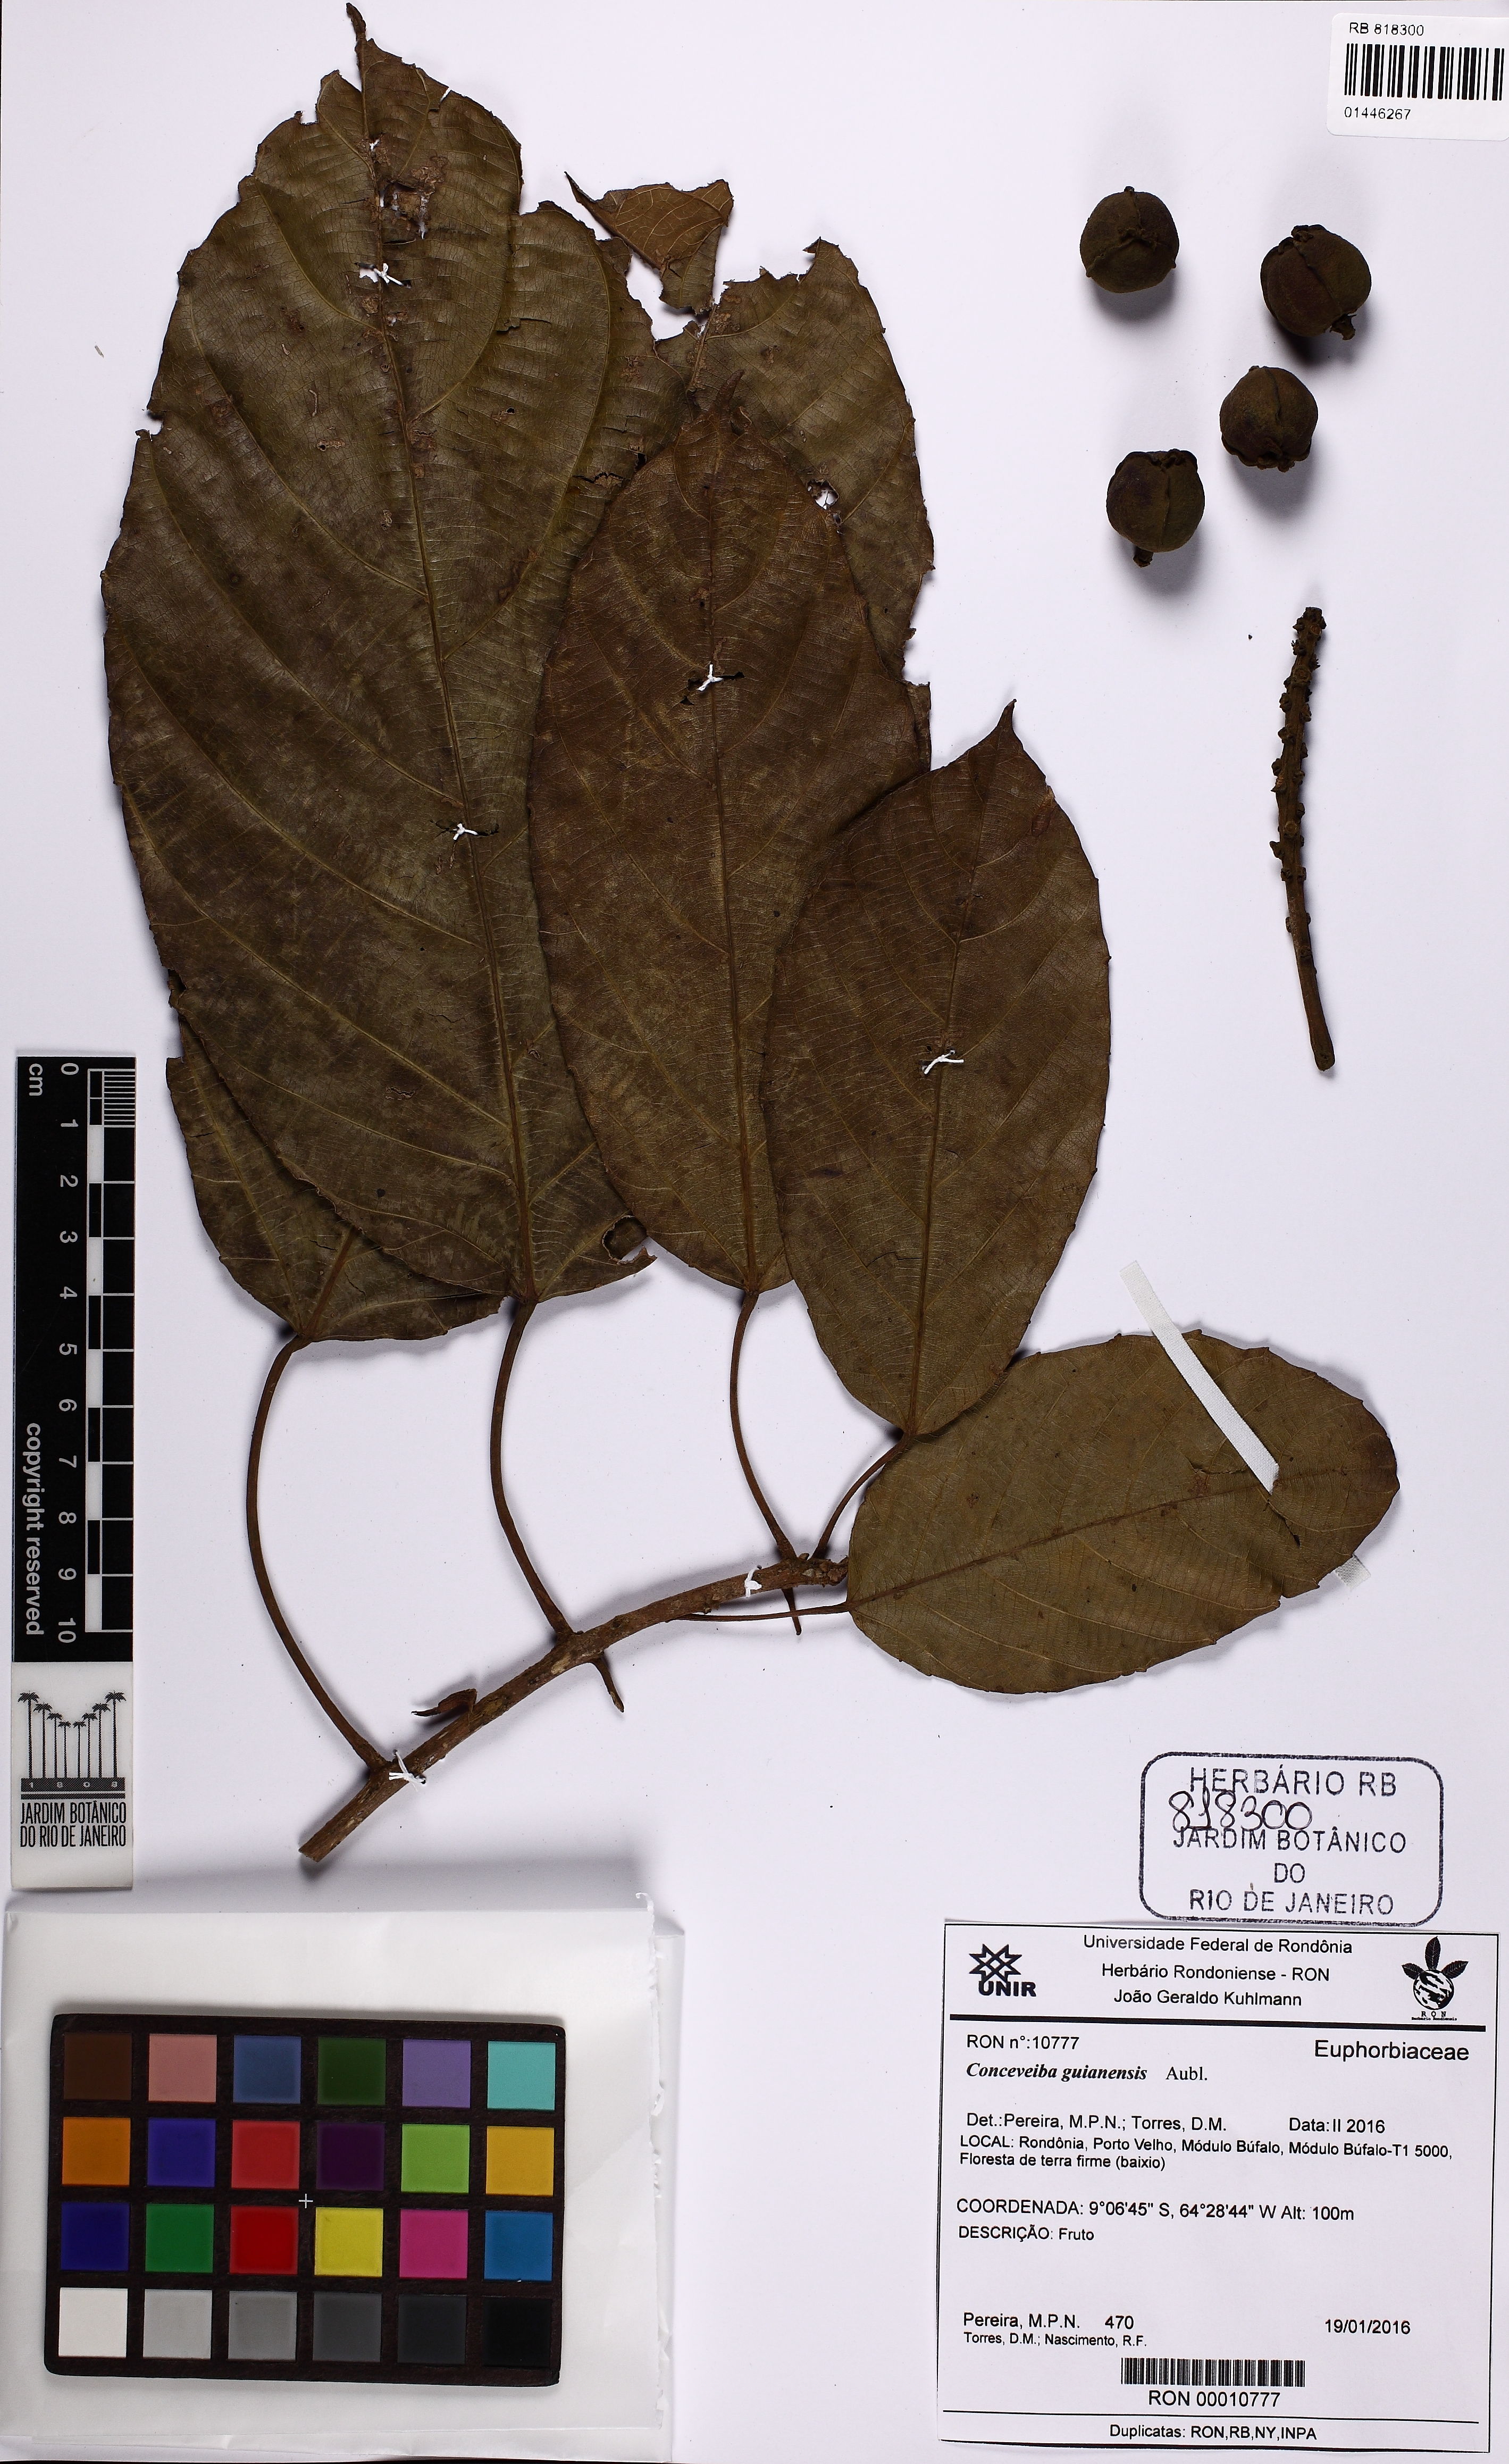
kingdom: Plantae
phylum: Tracheophyta
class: Magnoliopsida
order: Malpighiales
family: Euphorbiaceae
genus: Conceveiba
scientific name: Conceveiba guianensis
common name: Poatoru
